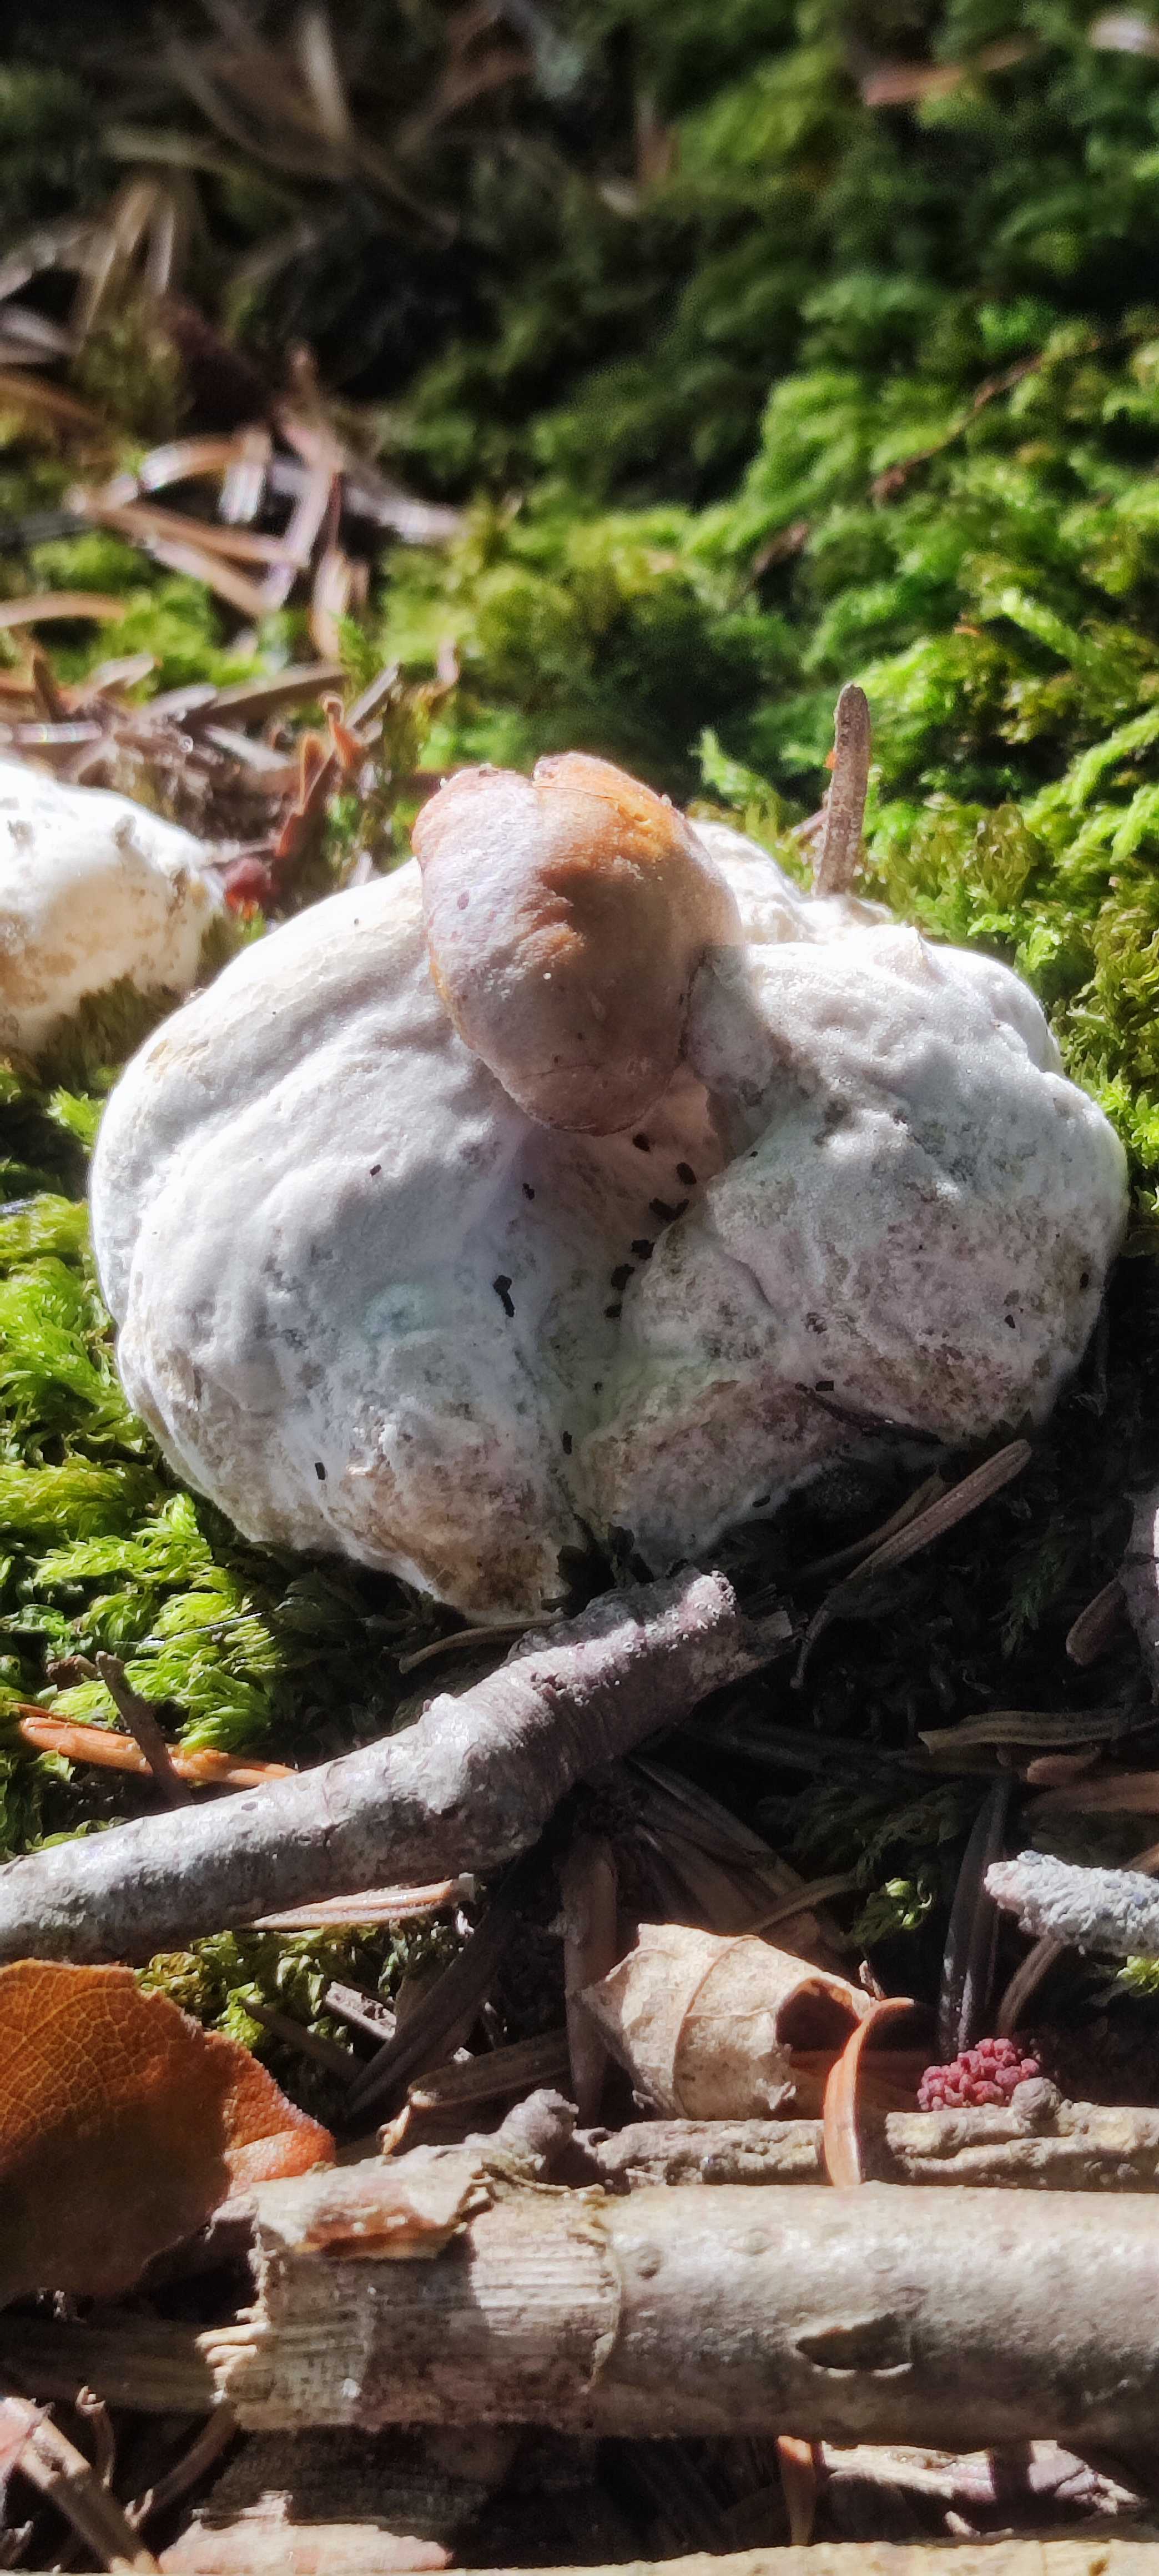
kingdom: Fungi
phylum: Basidiomycota
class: Agaricomycetes
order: Boletales
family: Boletaceae
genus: Boletus
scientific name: Boletus edulis
